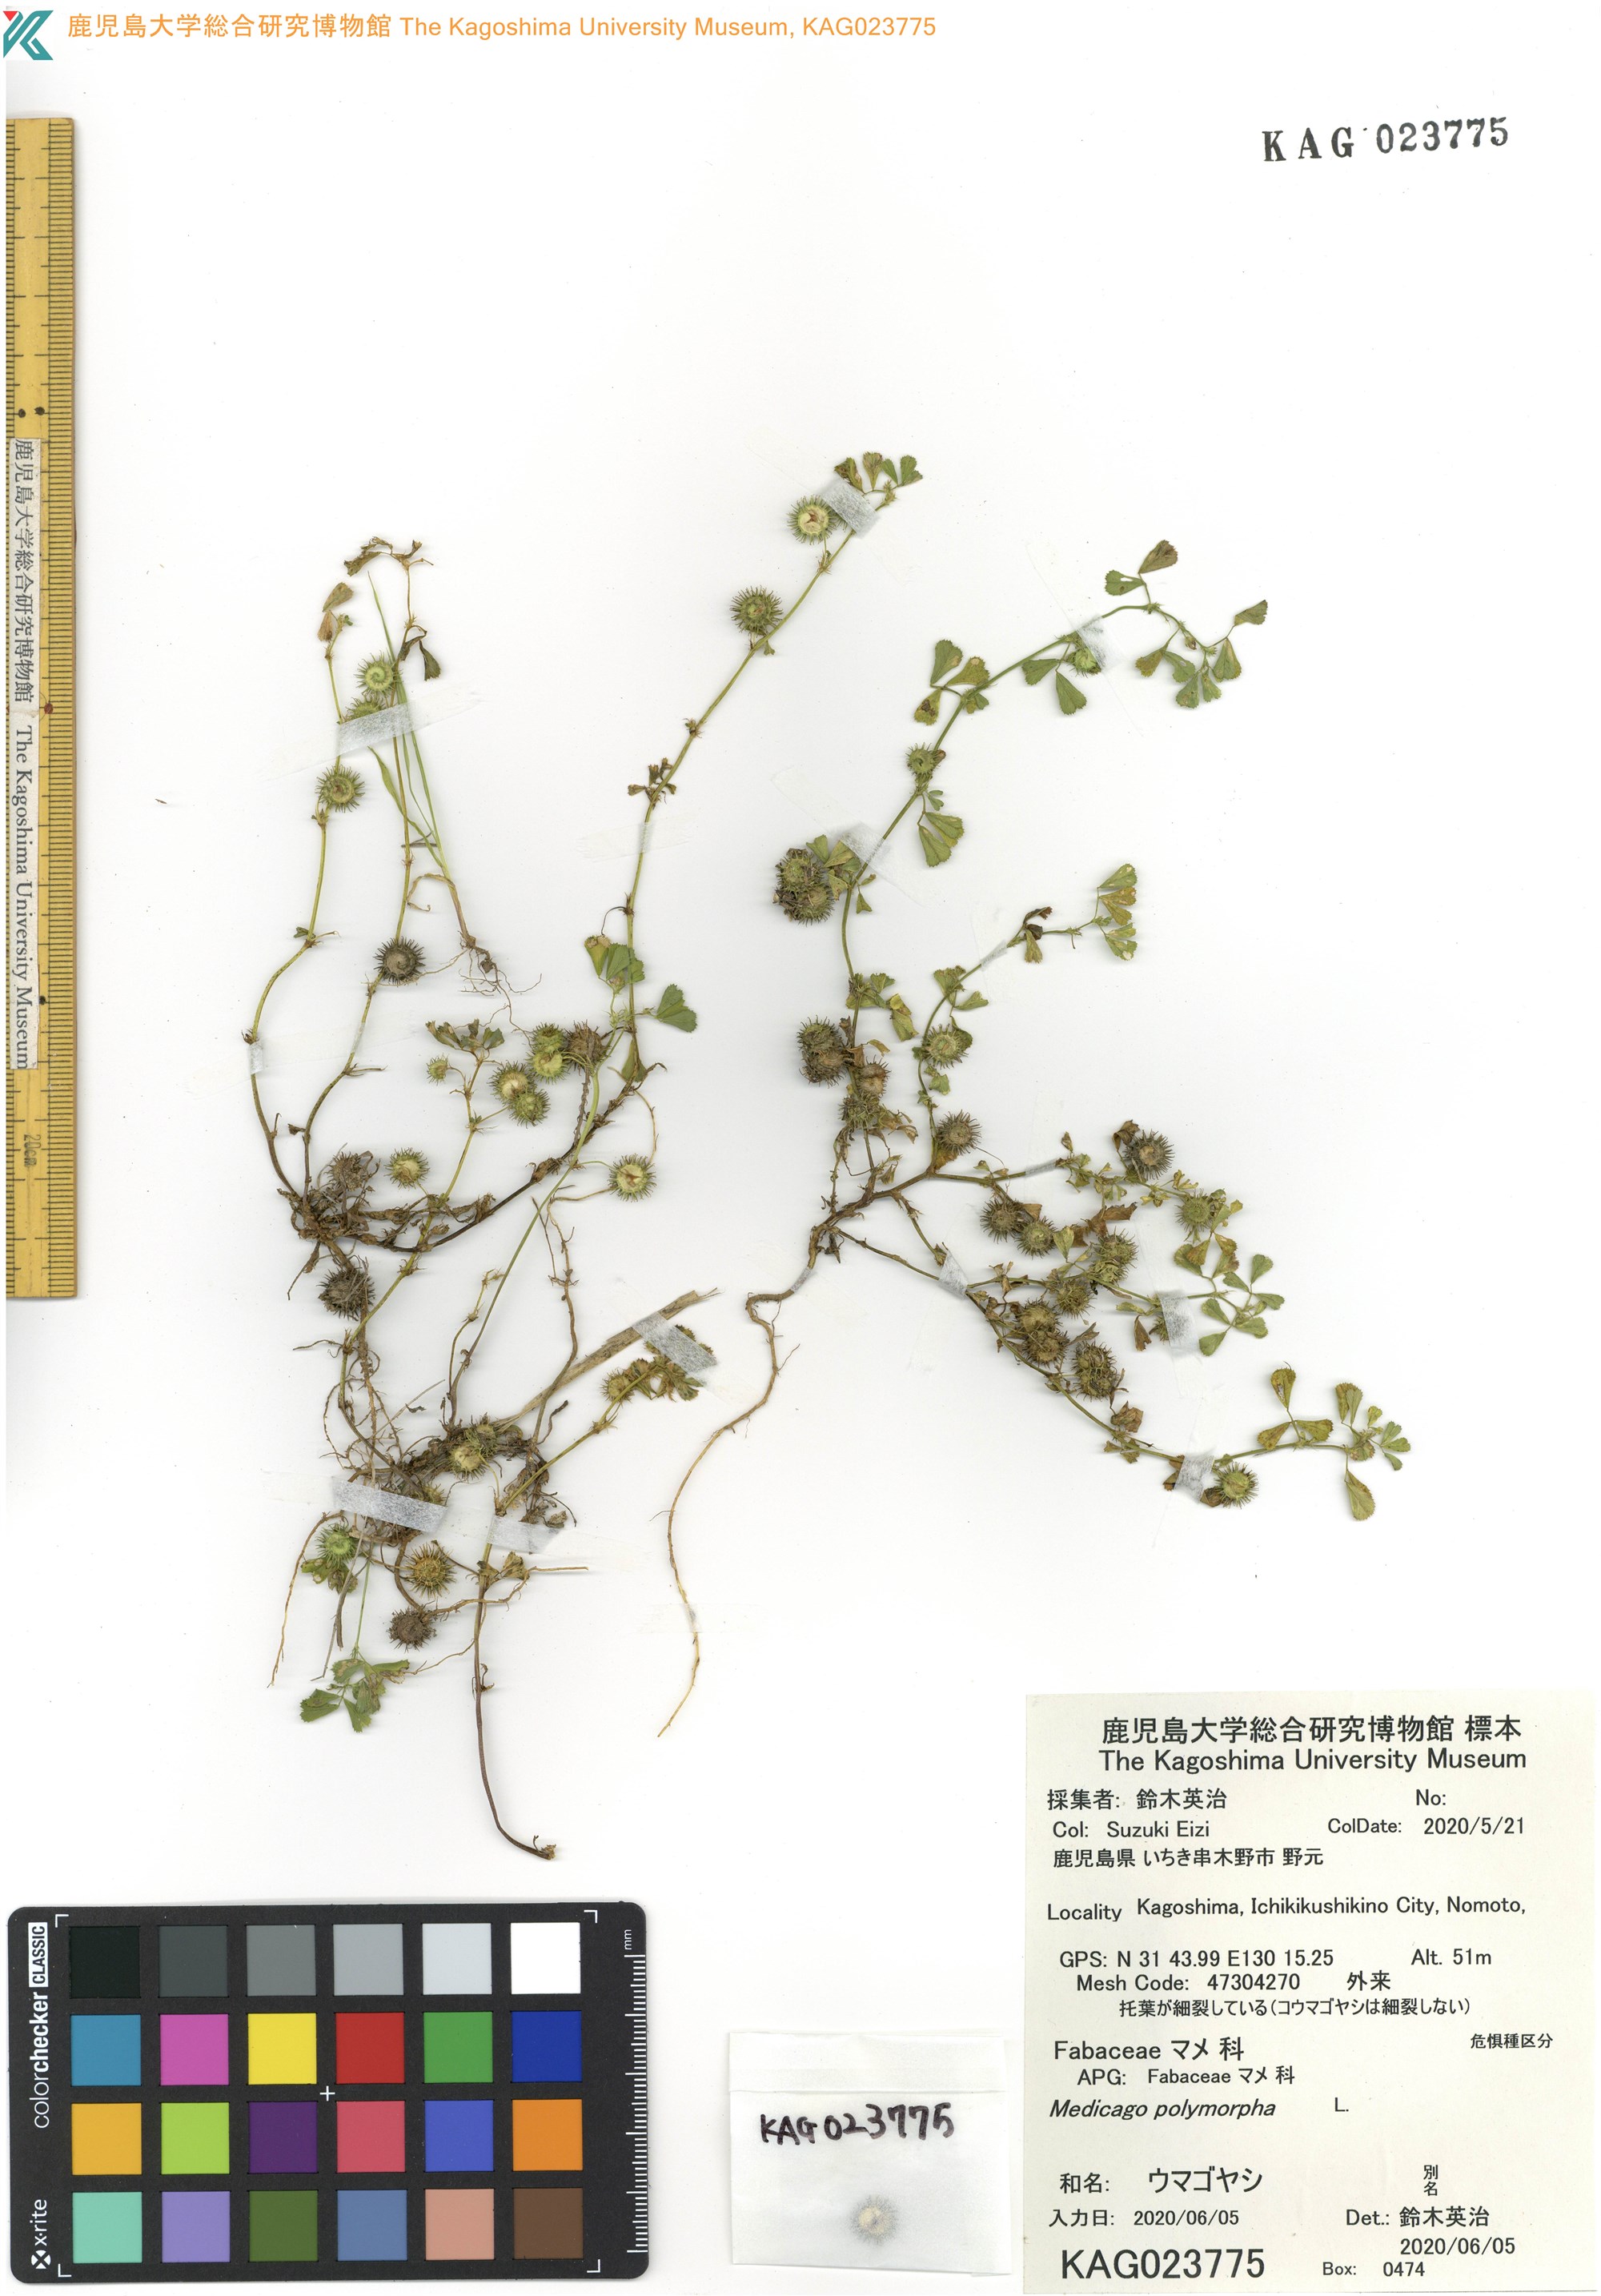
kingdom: Plantae
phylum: Tracheophyta
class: Magnoliopsida
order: Fabales
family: Fabaceae
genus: Medicago
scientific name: Medicago polymorpha
